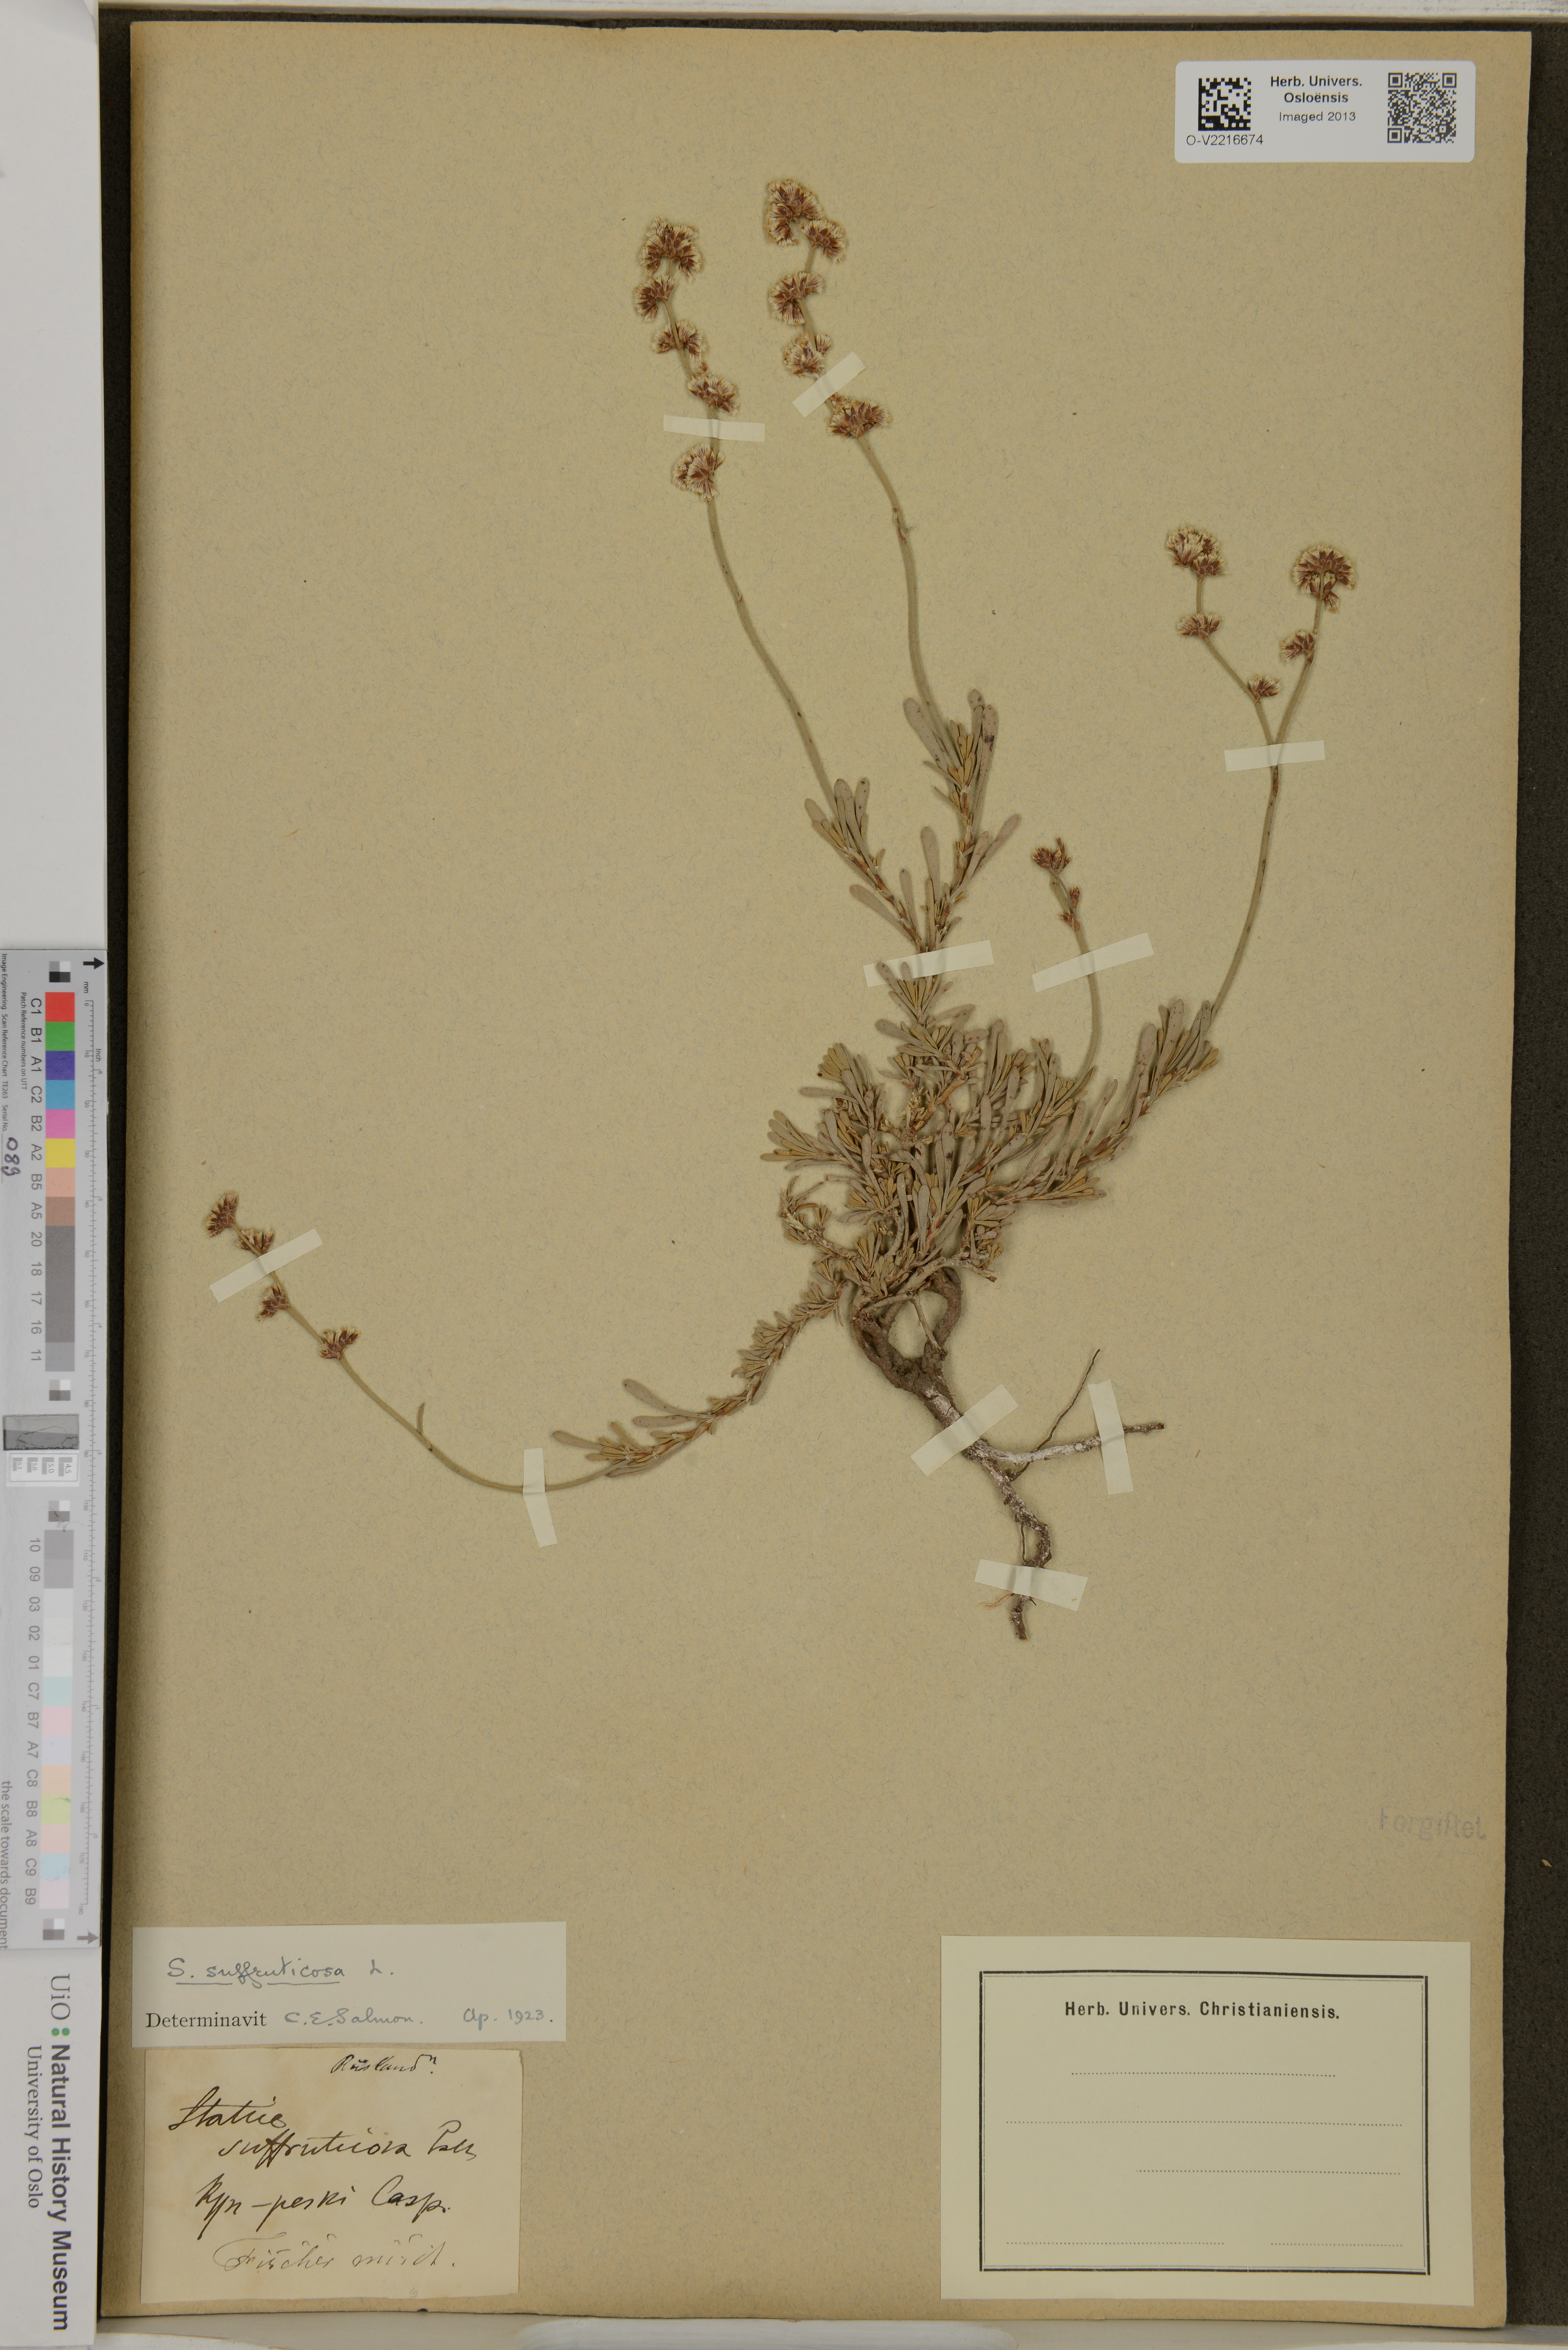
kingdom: Plantae
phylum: Tracheophyta
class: Magnoliopsida
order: Caryophyllales
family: Plumbaginaceae
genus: Limonium
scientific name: Limonium suffruticosum
